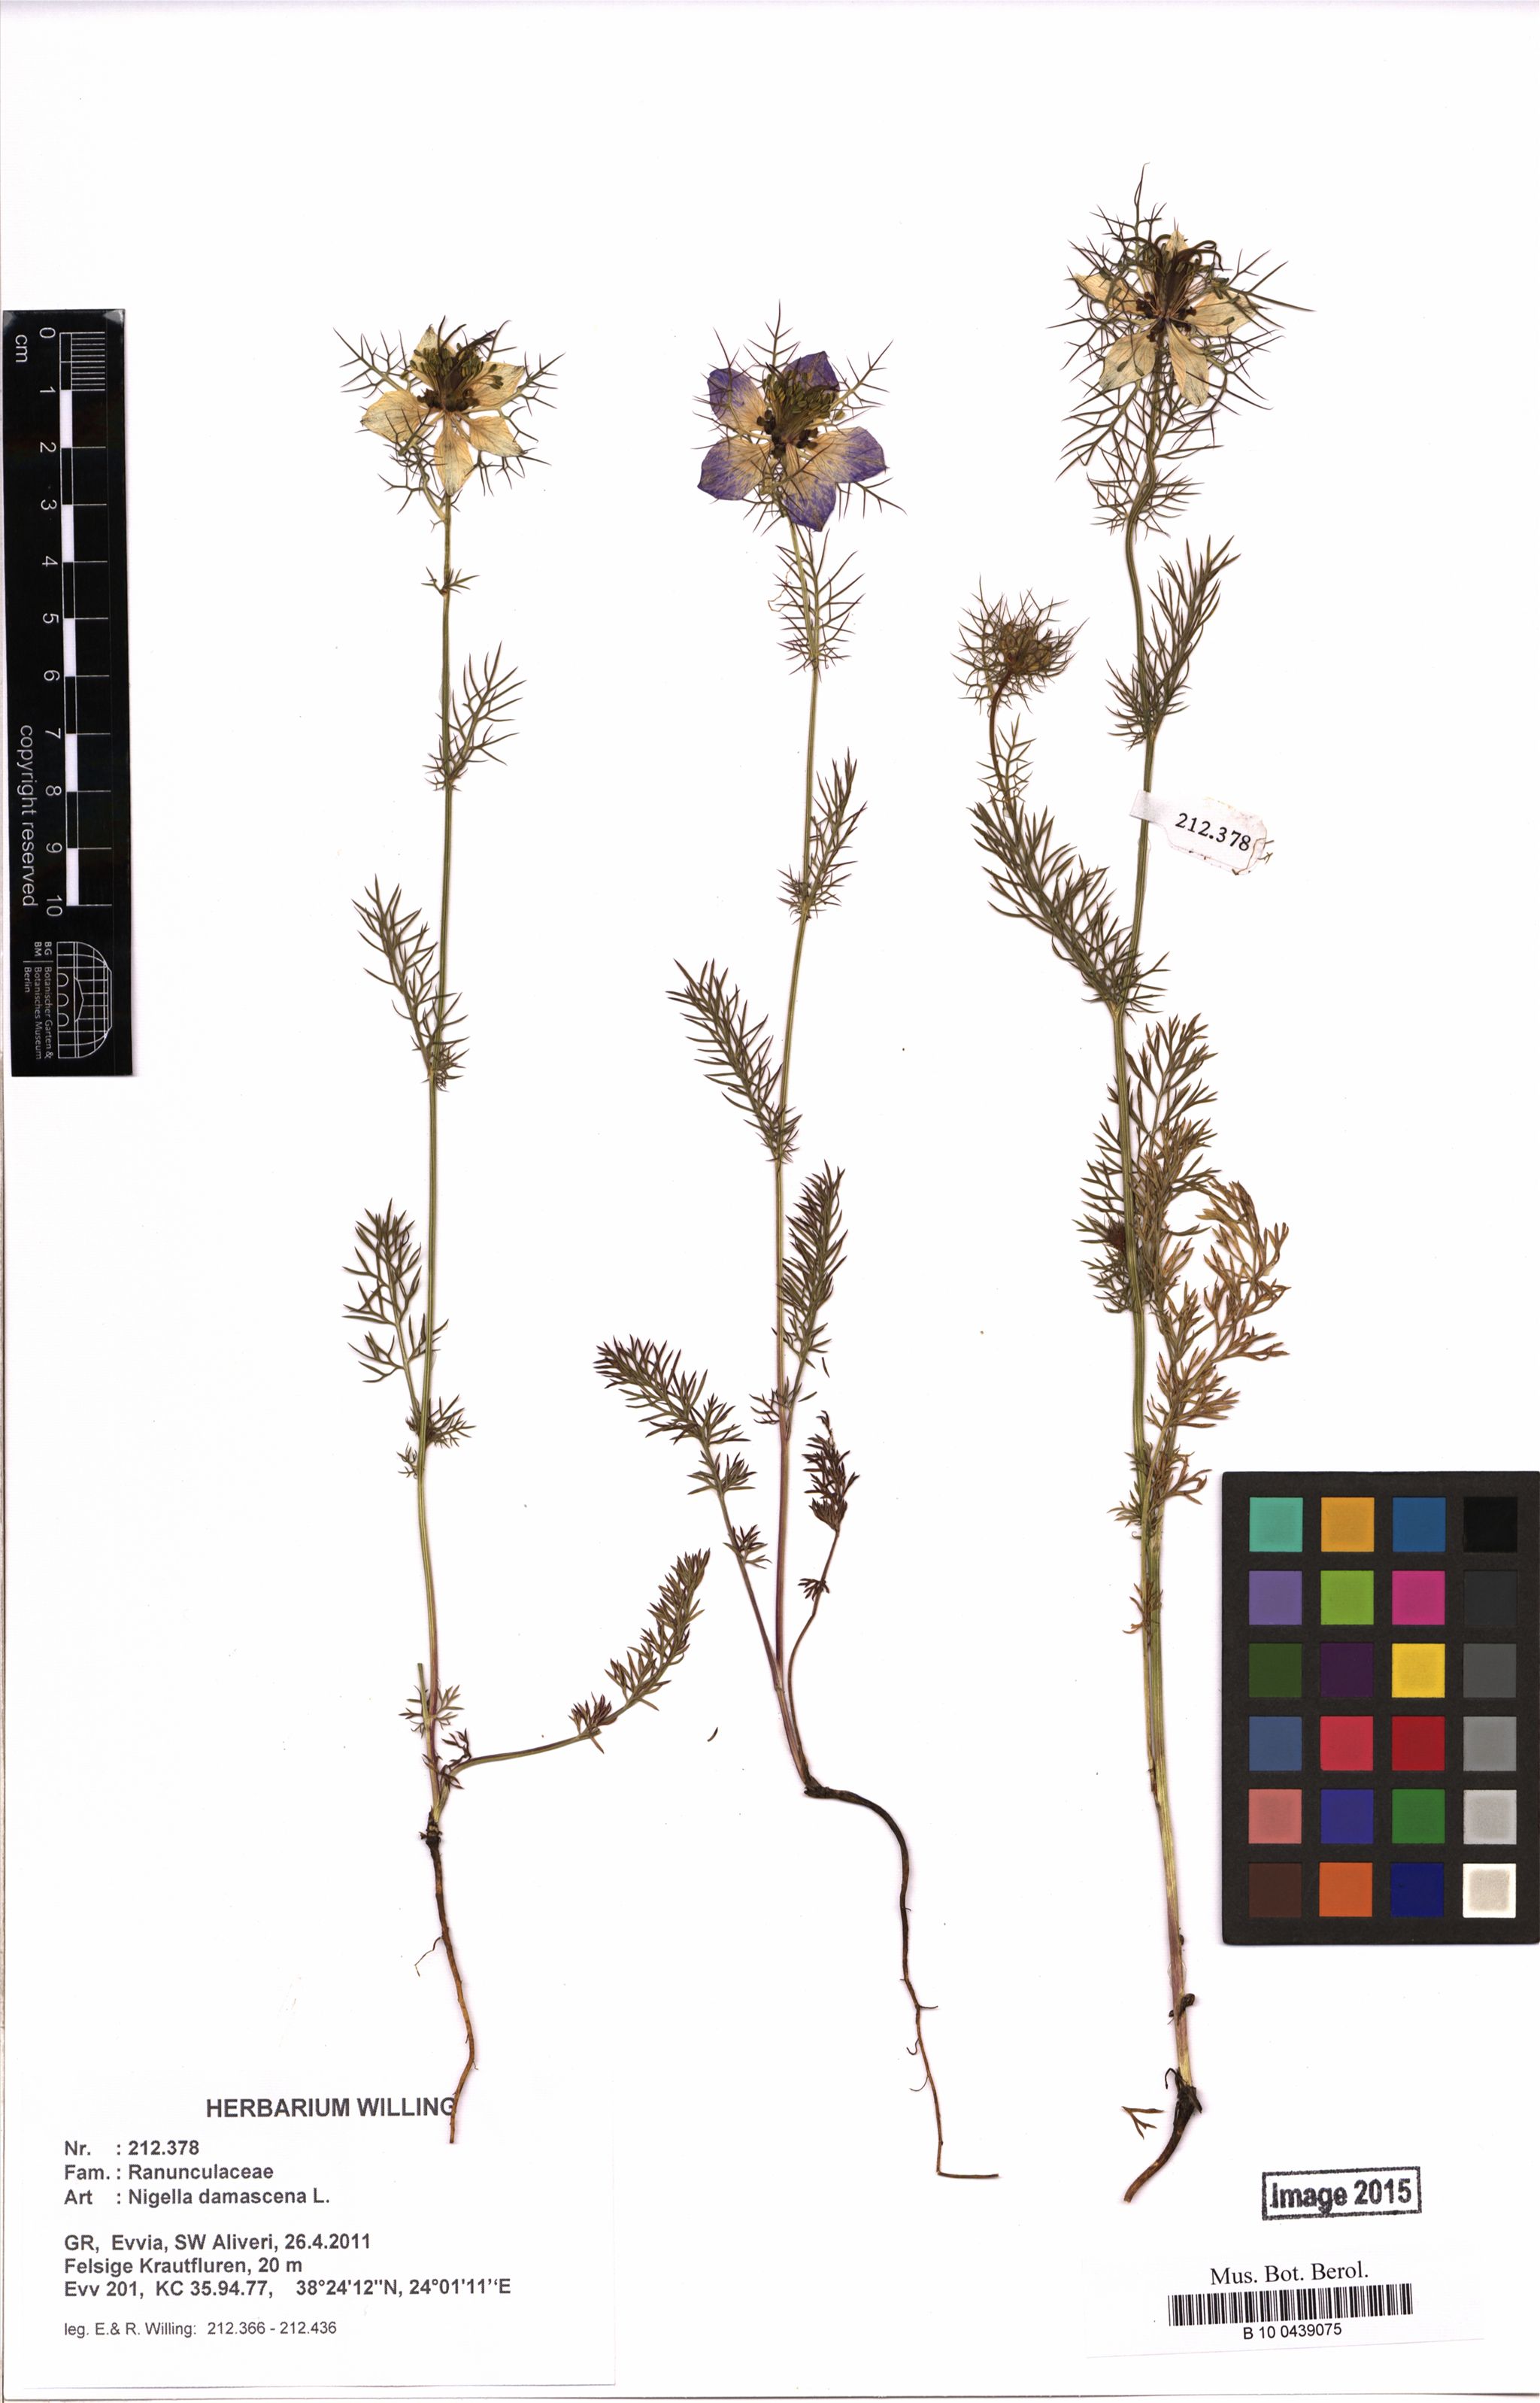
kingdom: Plantae
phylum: Tracheophyta
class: Magnoliopsida
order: Ranunculales
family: Ranunculaceae
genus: Nigella
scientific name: Nigella damascena
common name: Love-in-a-mist
